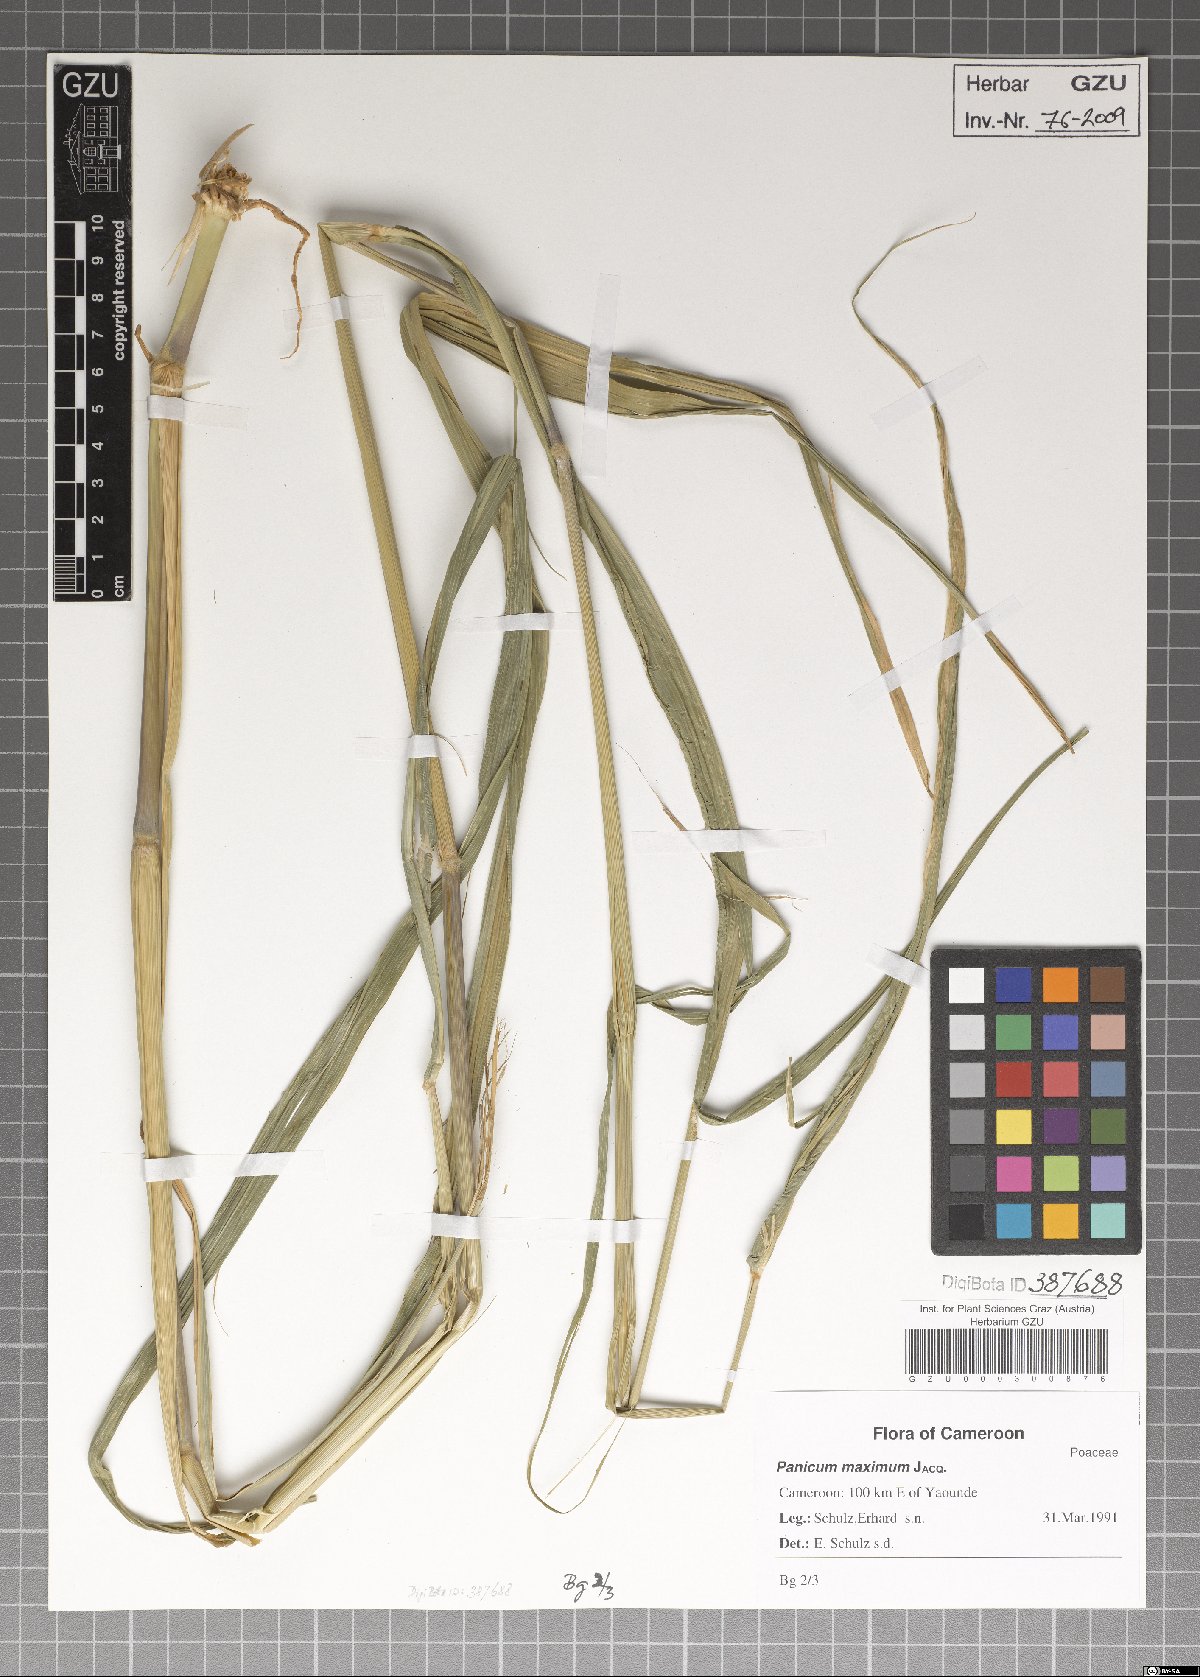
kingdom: Plantae
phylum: Tracheophyta
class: Liliopsida
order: Poales
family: Poaceae
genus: Megathyrsus
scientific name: Megathyrsus maximus
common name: Guineagrass
